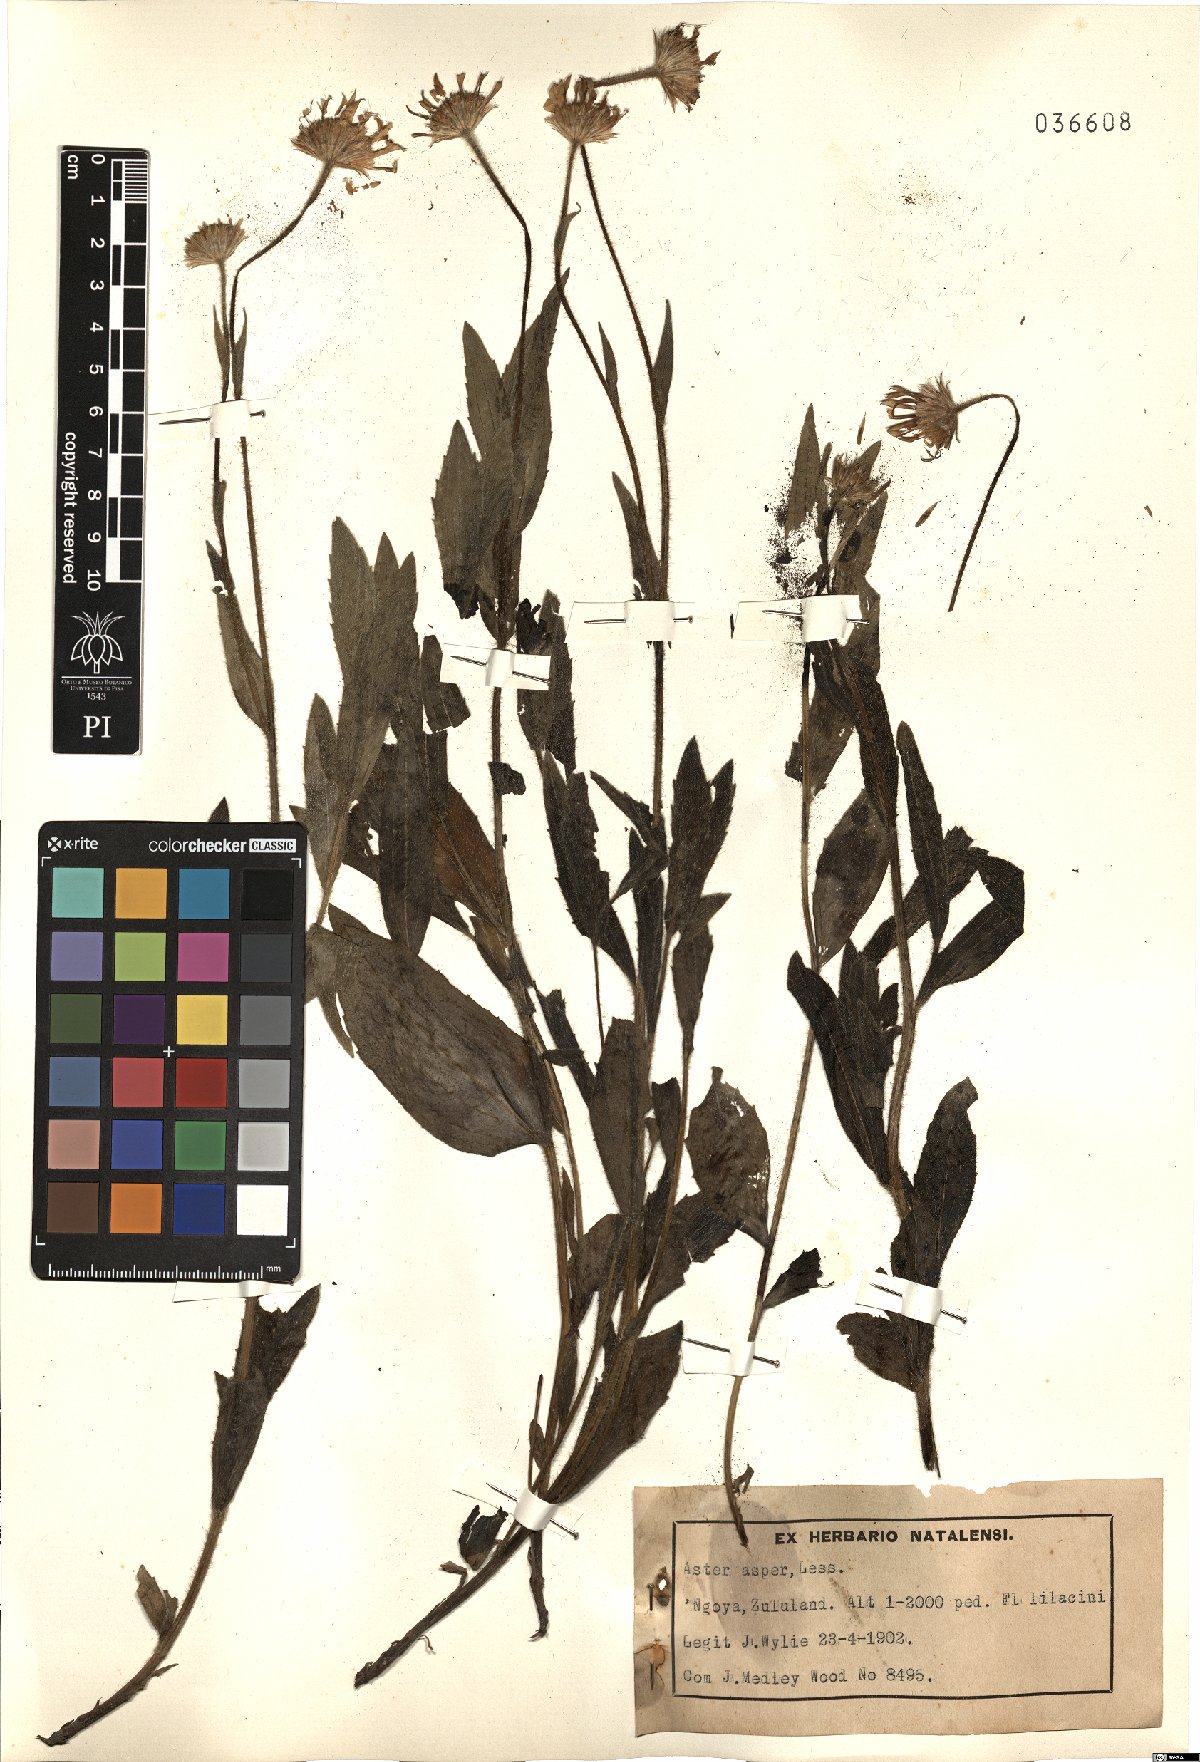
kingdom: Plantae
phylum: Tracheophyta
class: Magnoliopsida
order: Asterales
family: Asteraceae
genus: Afroaster
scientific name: Afroaster hispidus
